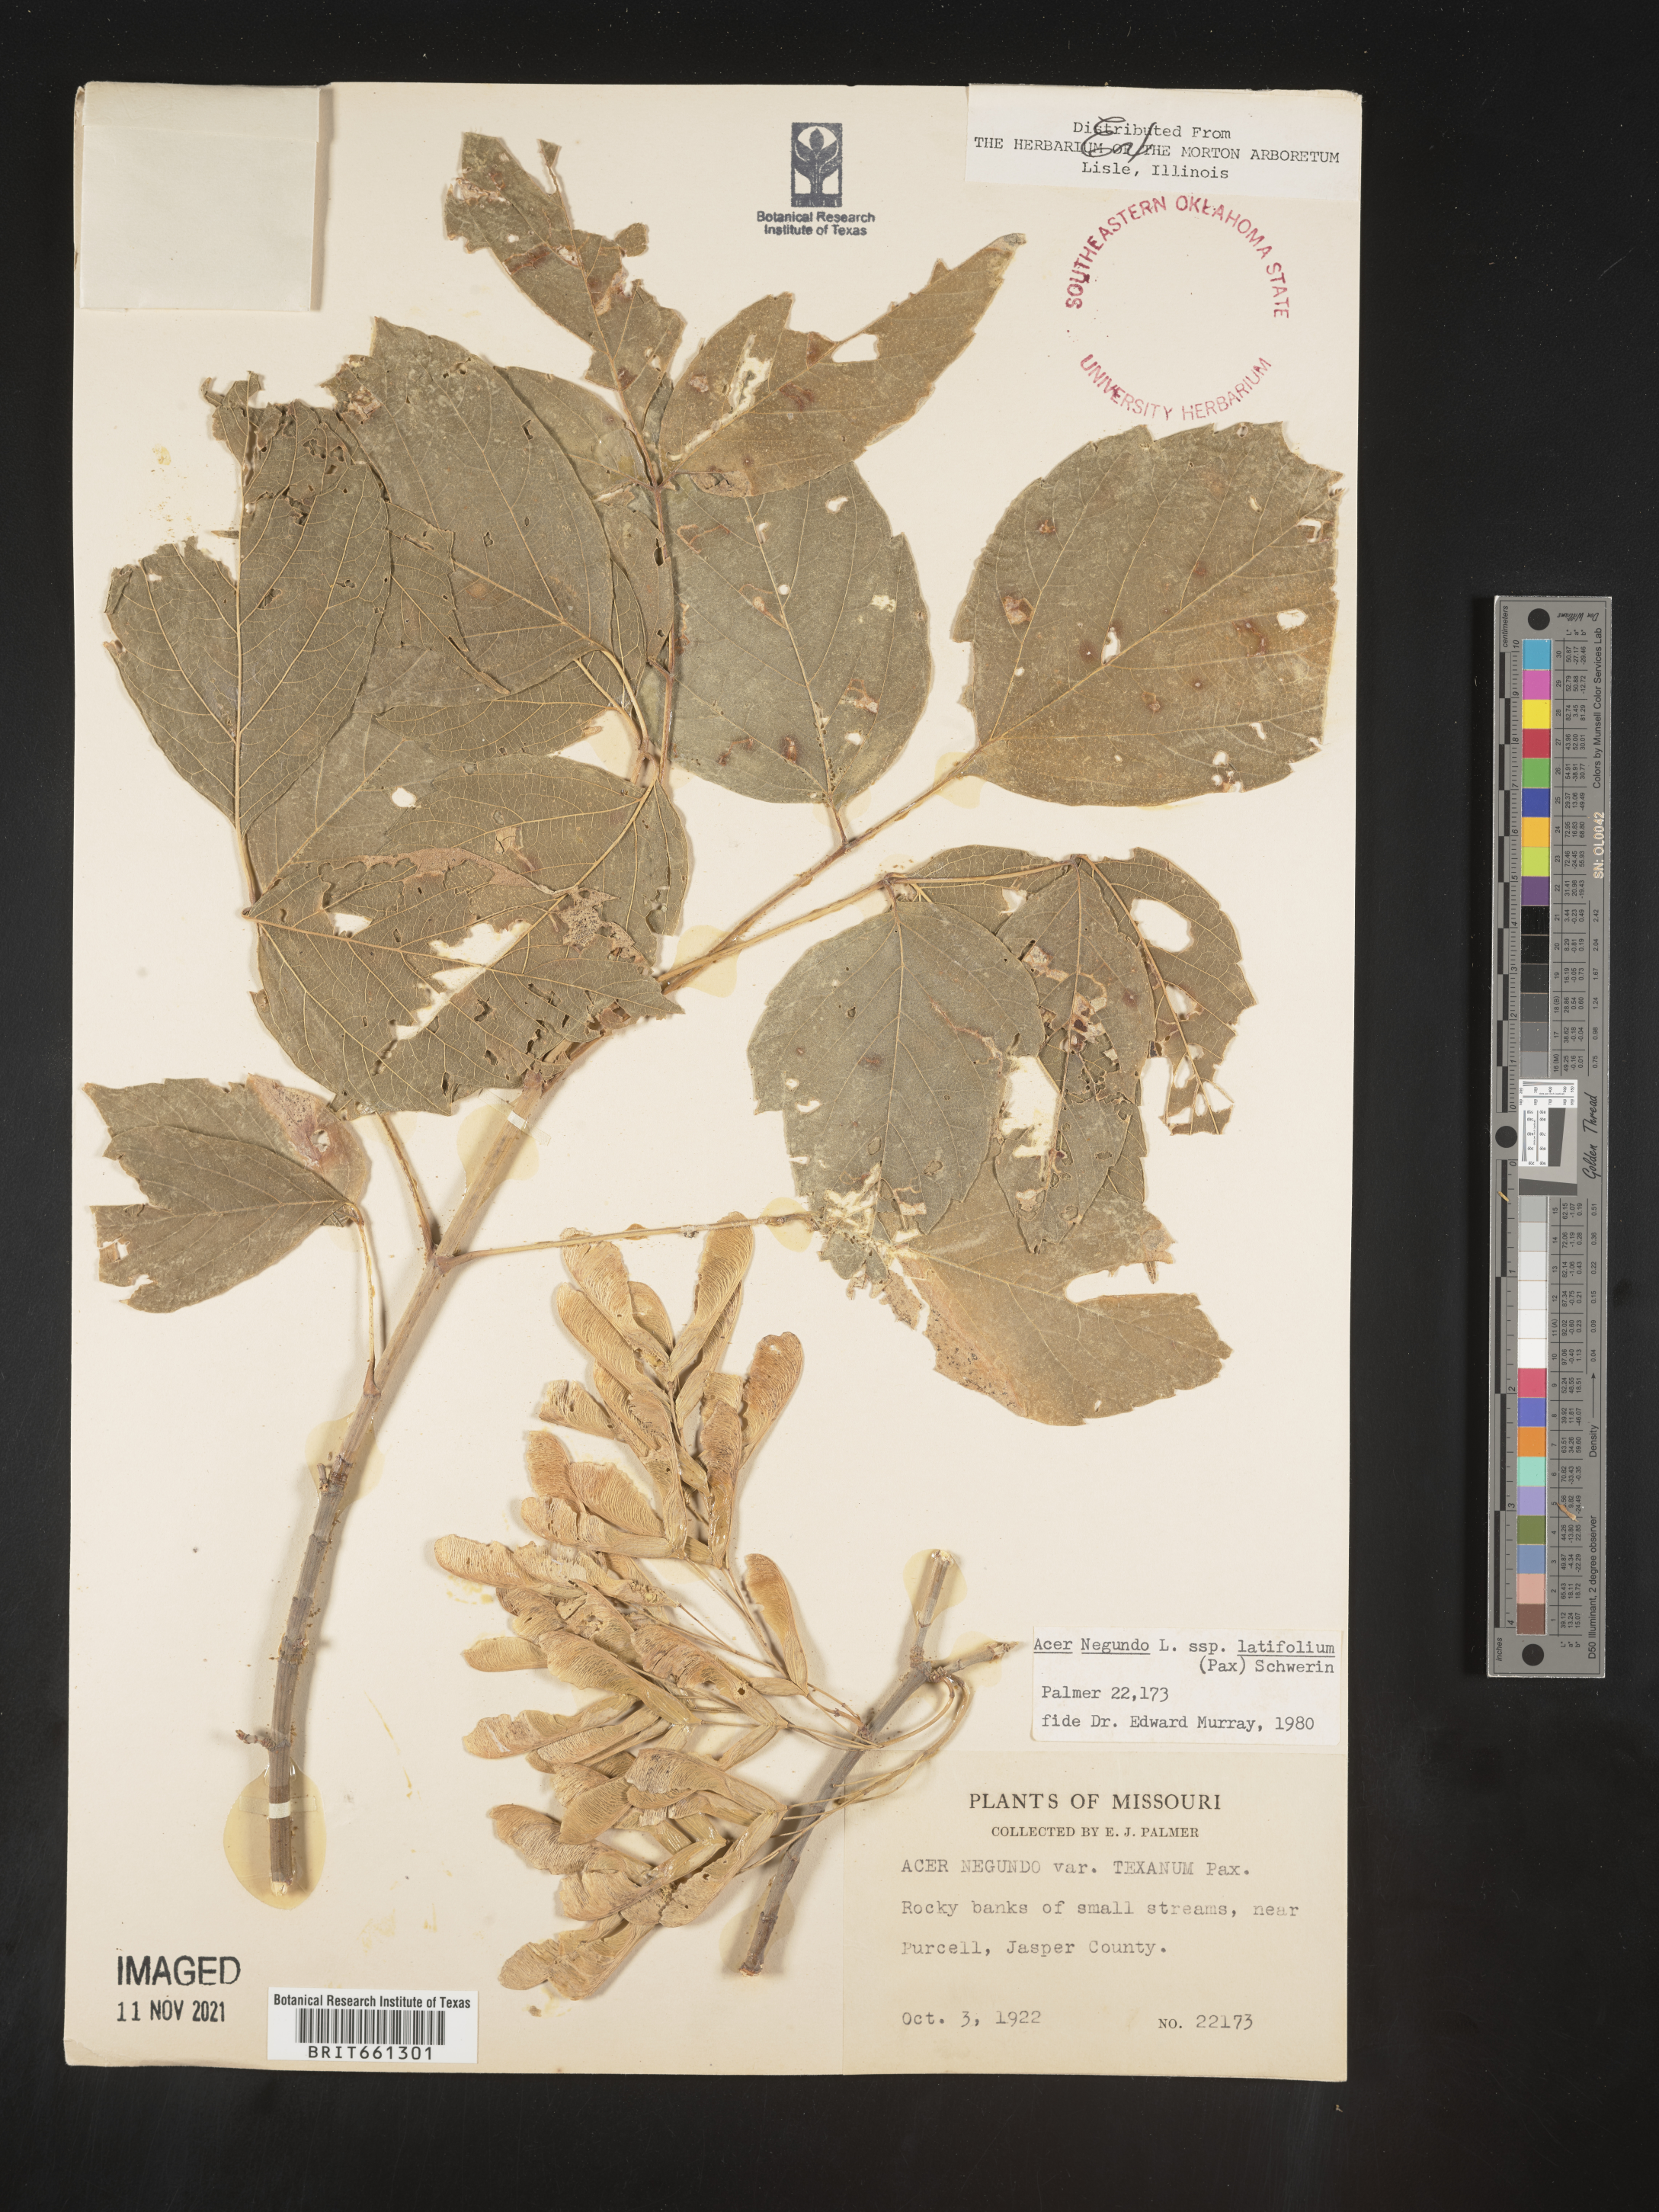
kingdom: Plantae
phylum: Tracheophyta
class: Magnoliopsida
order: Sapindales
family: Sapindaceae
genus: Acer
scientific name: Acer negundo
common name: Ashleaf maple
